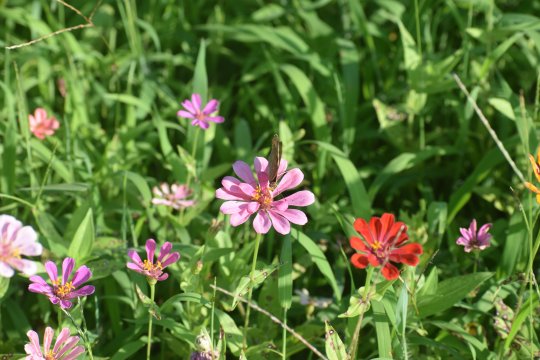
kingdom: Animalia
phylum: Arthropoda
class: Insecta
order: Lepidoptera
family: Nymphalidae
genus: Junonia
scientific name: Junonia coenia
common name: Common Buckeye
